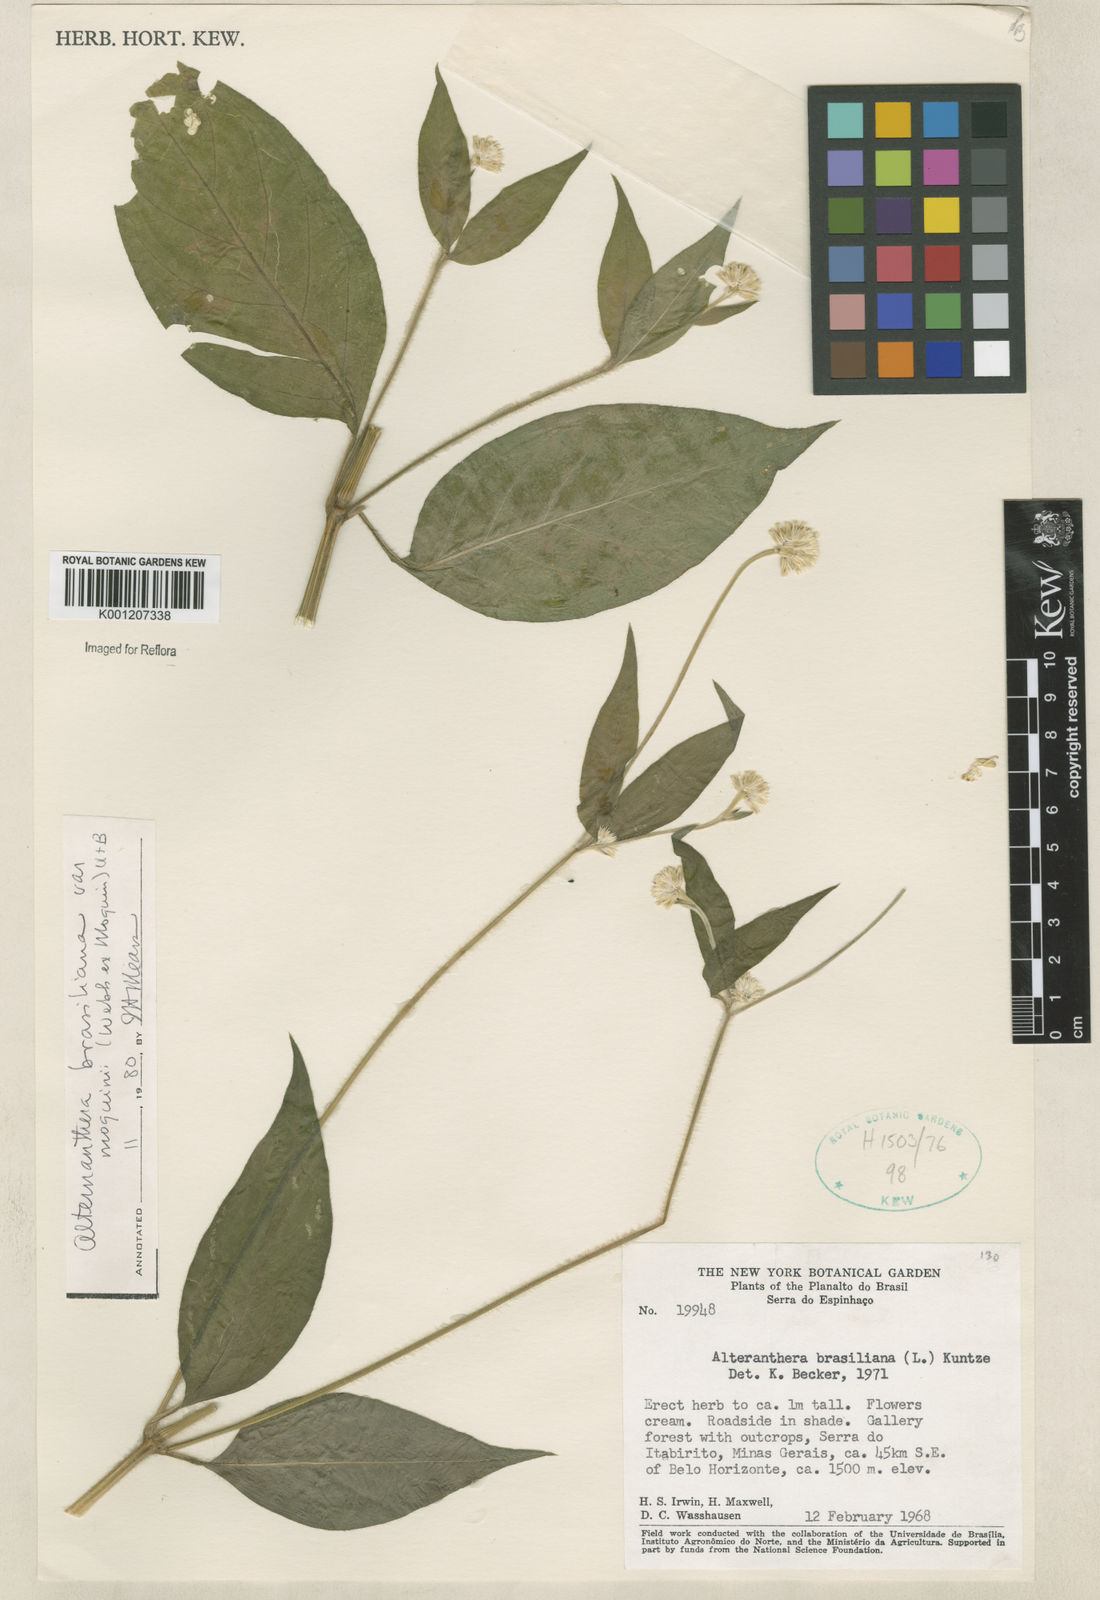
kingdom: Plantae
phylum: Tracheophyta
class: Magnoliopsida
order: Caryophyllales
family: Amaranthaceae
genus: Alternanthera
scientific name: Alternanthera ramosissima
